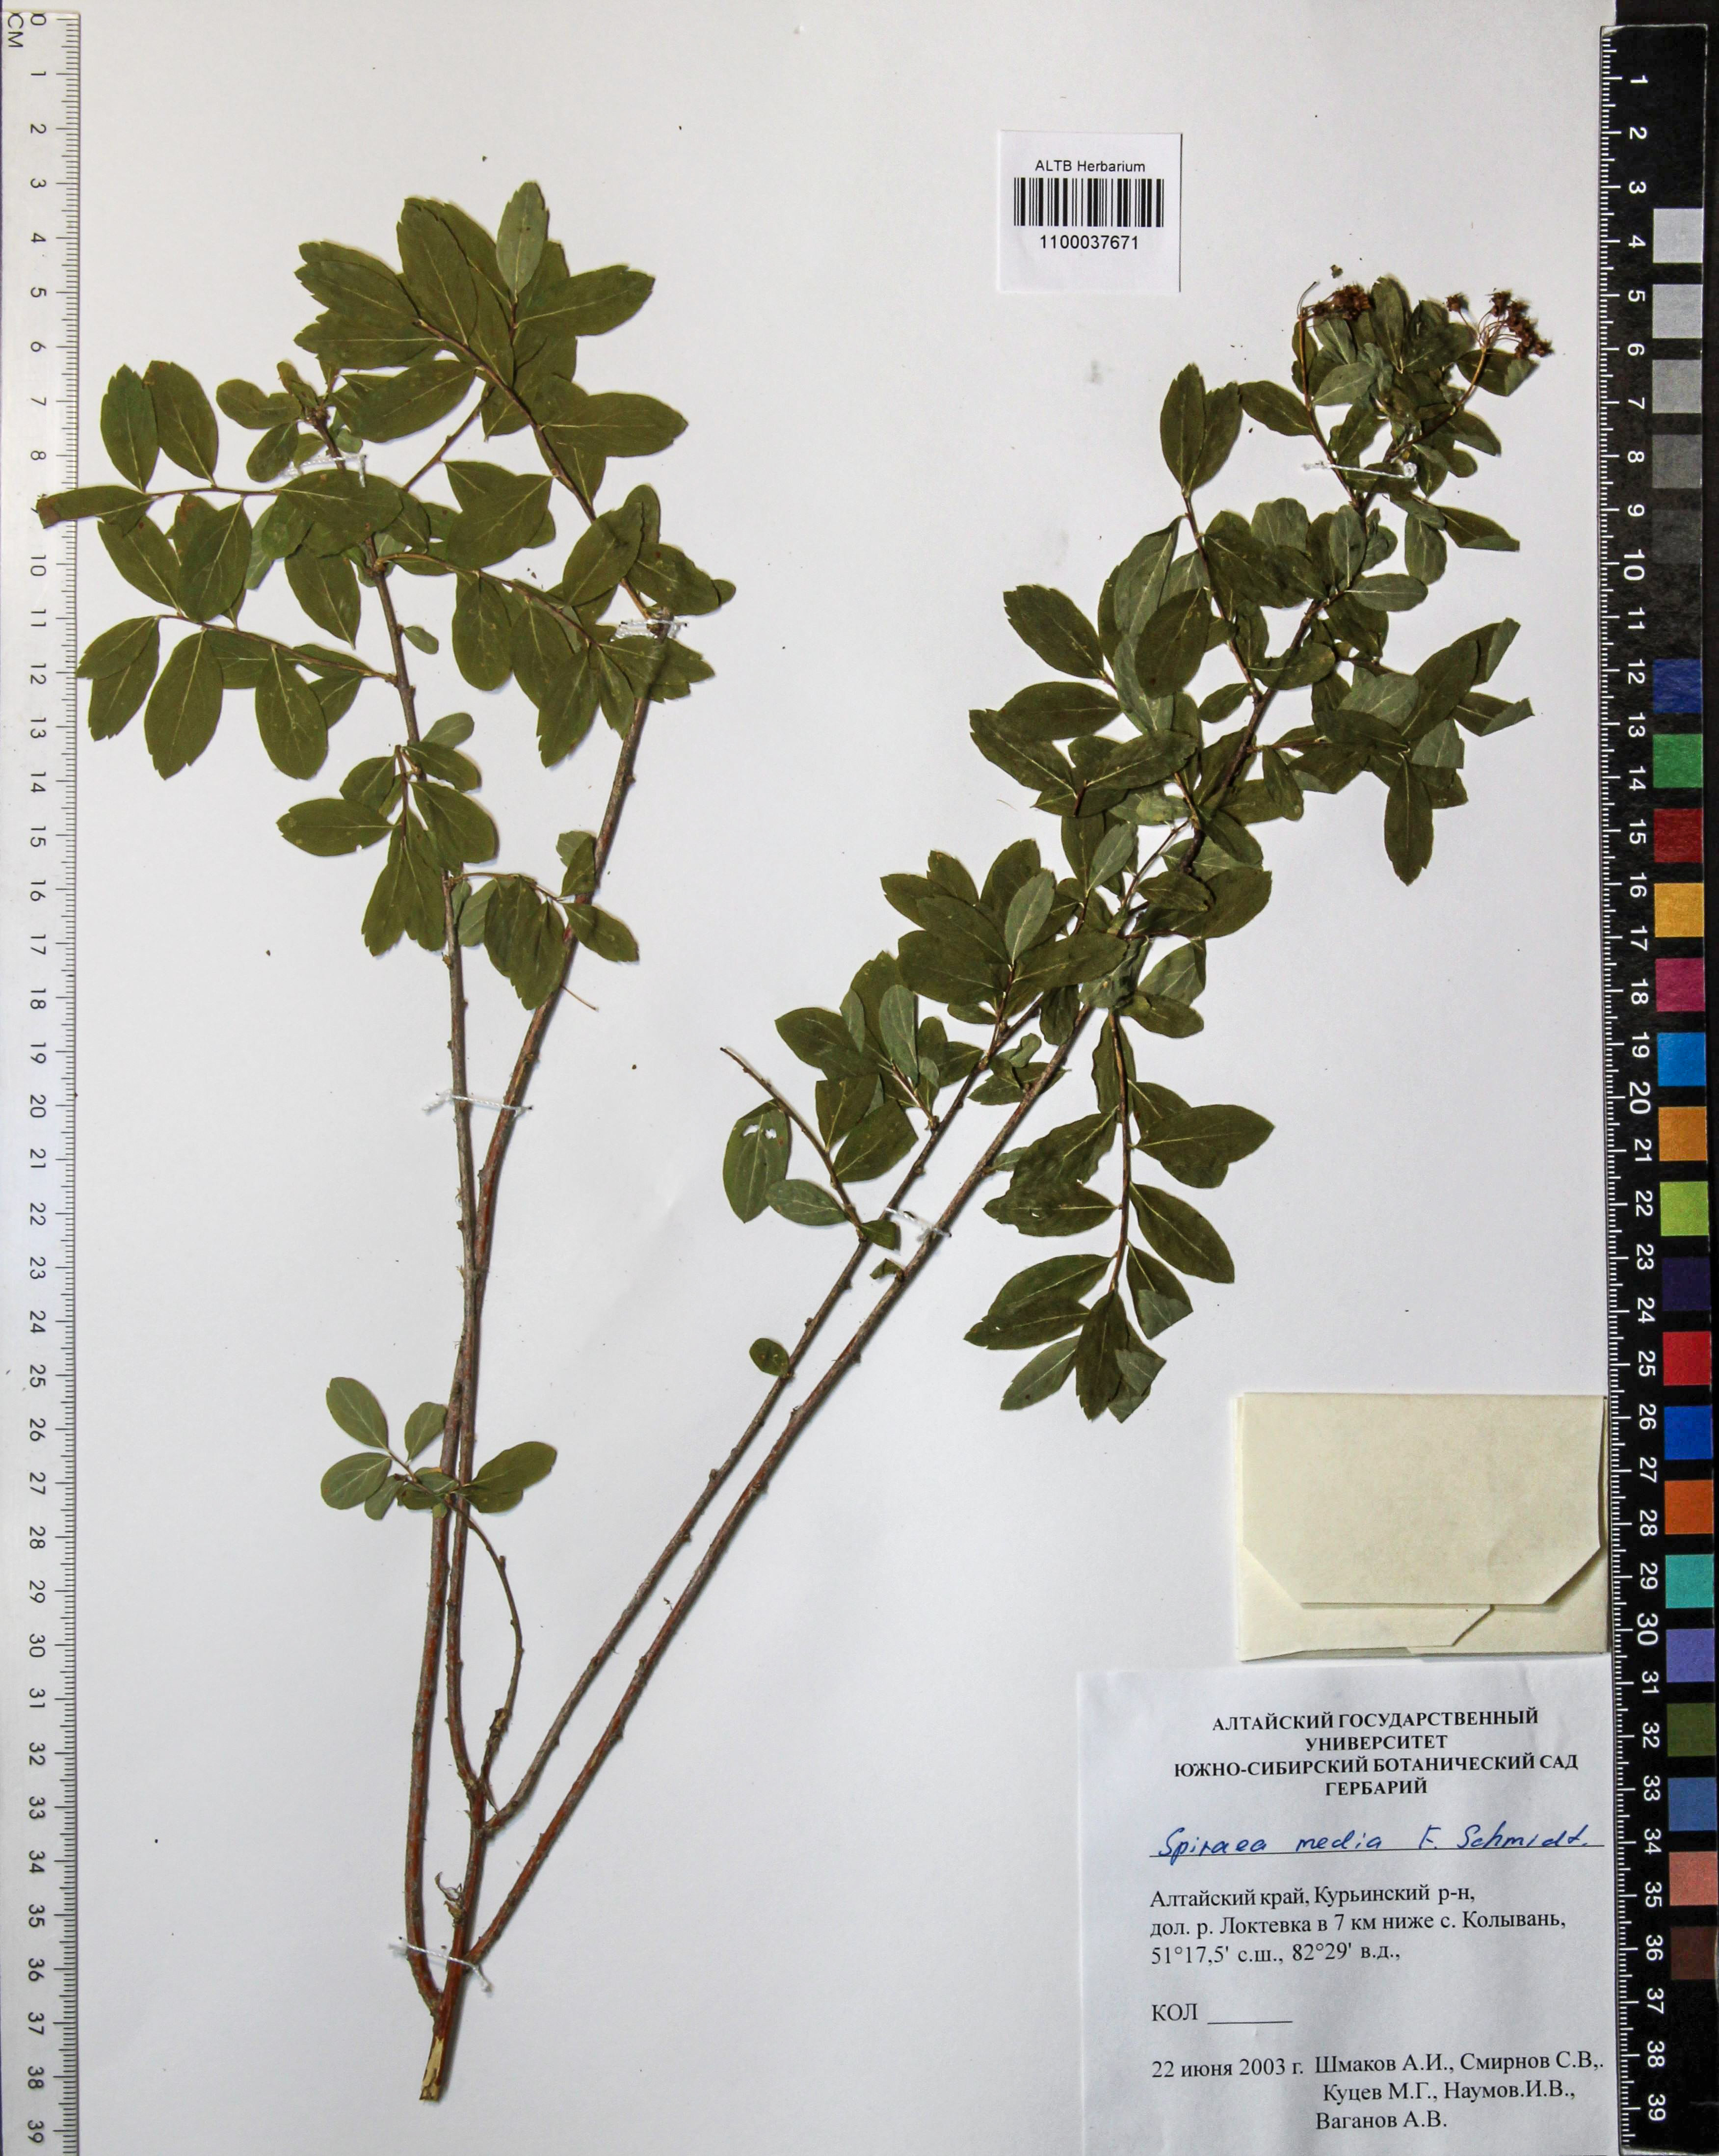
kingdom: Plantae
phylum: Tracheophyta
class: Magnoliopsida
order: Rosales
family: Rosaceae
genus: Spiraea
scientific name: Spiraea media
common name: Russian spiraea
